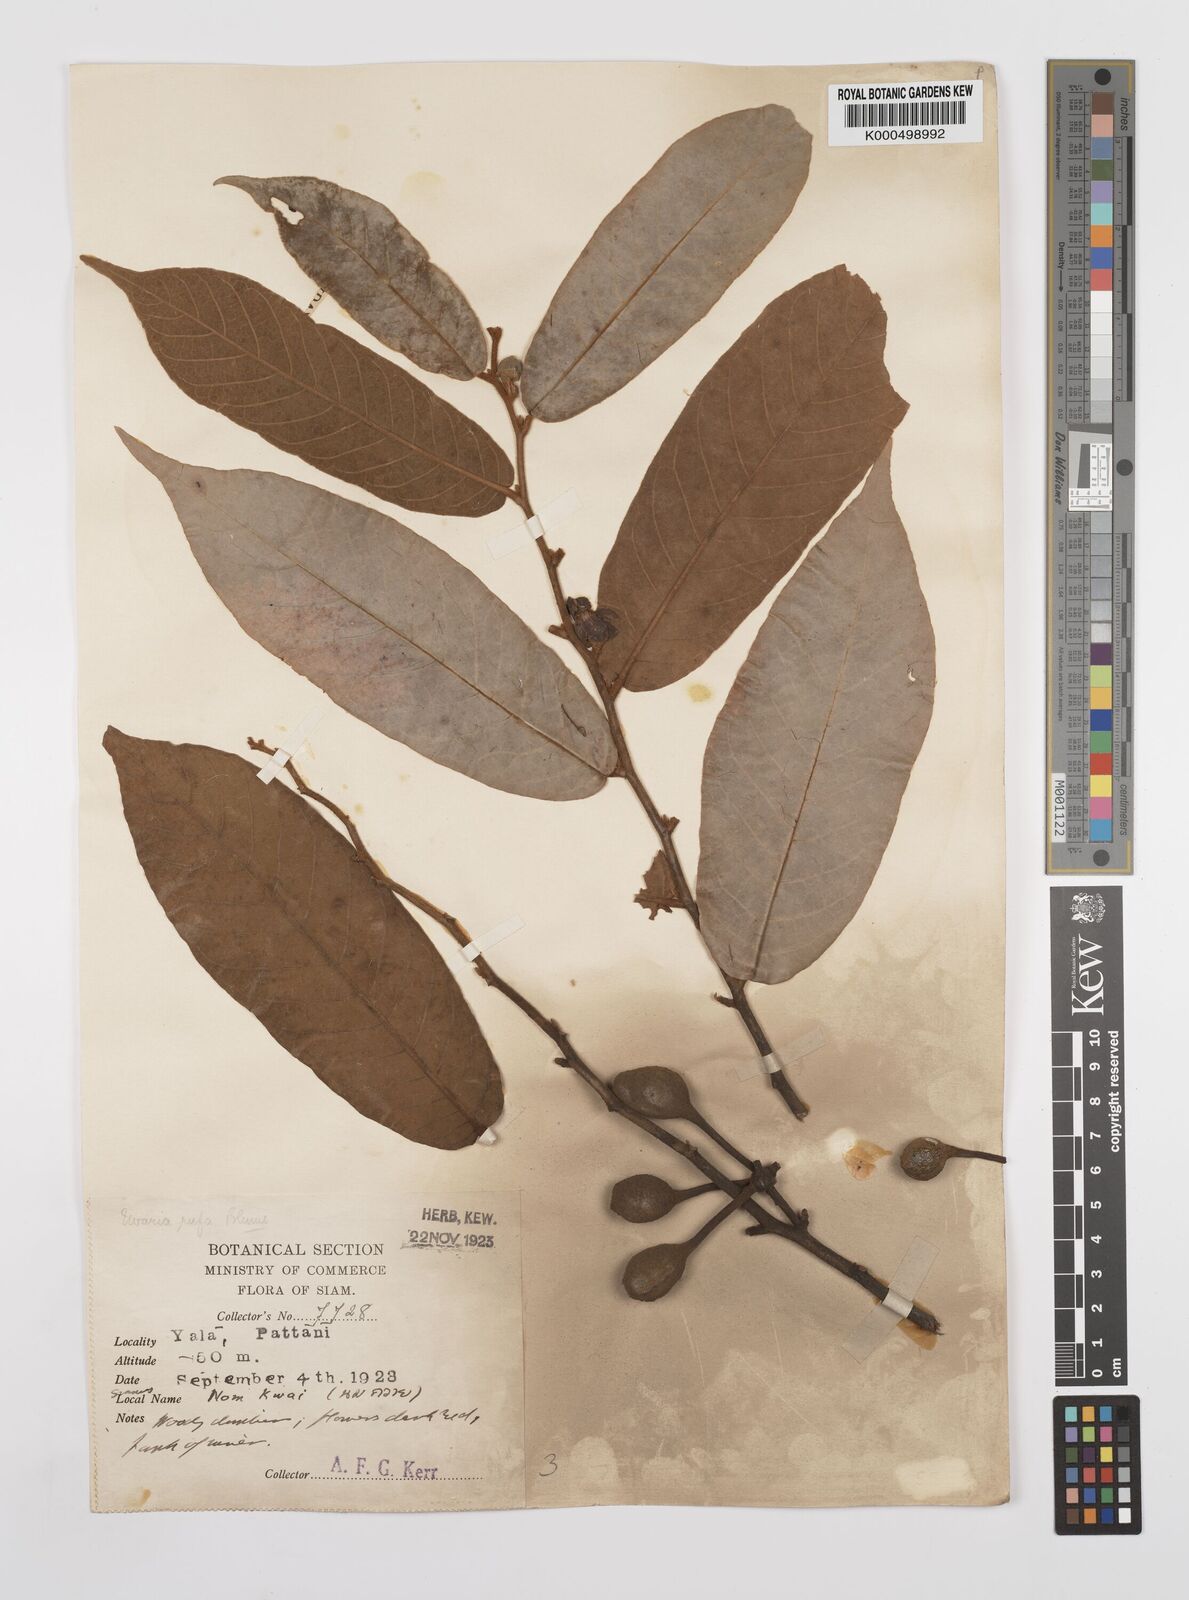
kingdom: Plantae
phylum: Tracheophyta
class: Magnoliopsida
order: Magnoliales
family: Annonaceae
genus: Uvaria
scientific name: Uvaria rufa
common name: Torres strait scrambler
